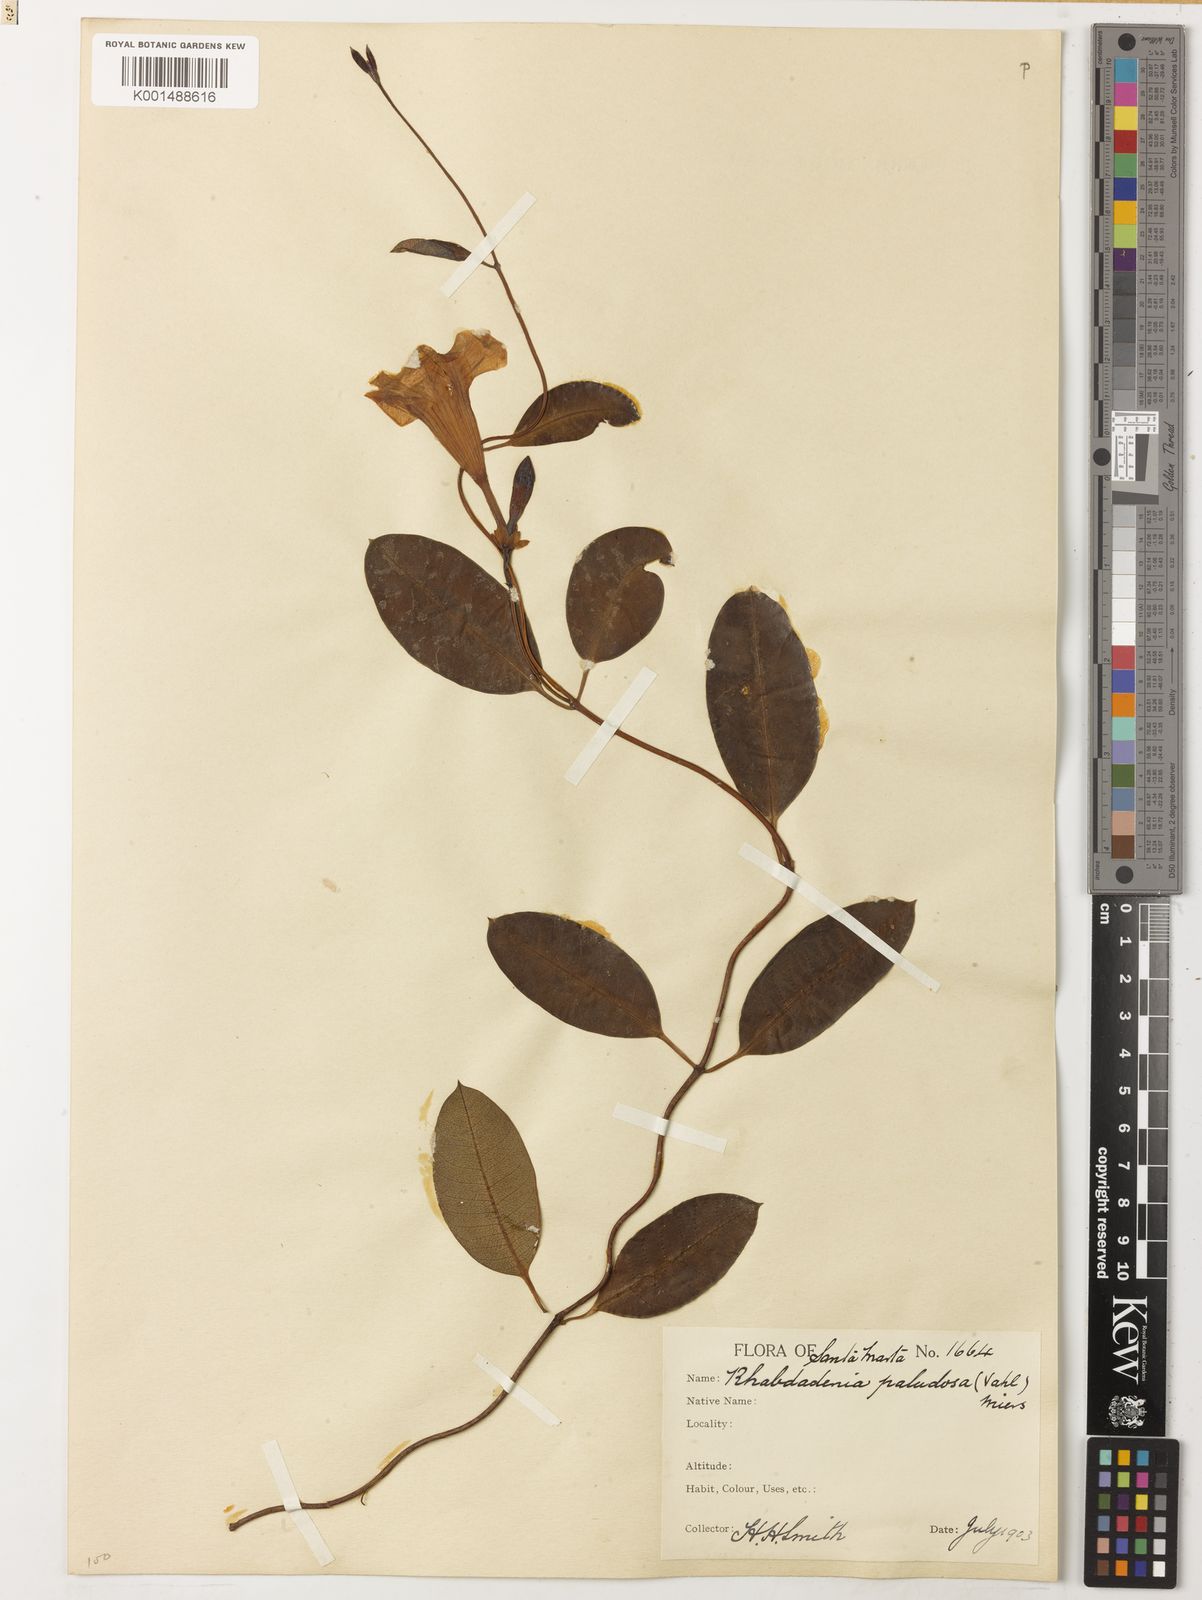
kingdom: Plantae
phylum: Tracheophyta
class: Magnoliopsida
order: Gentianales
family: Apocynaceae
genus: Rhabdadenia
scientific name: Rhabdadenia biflora
